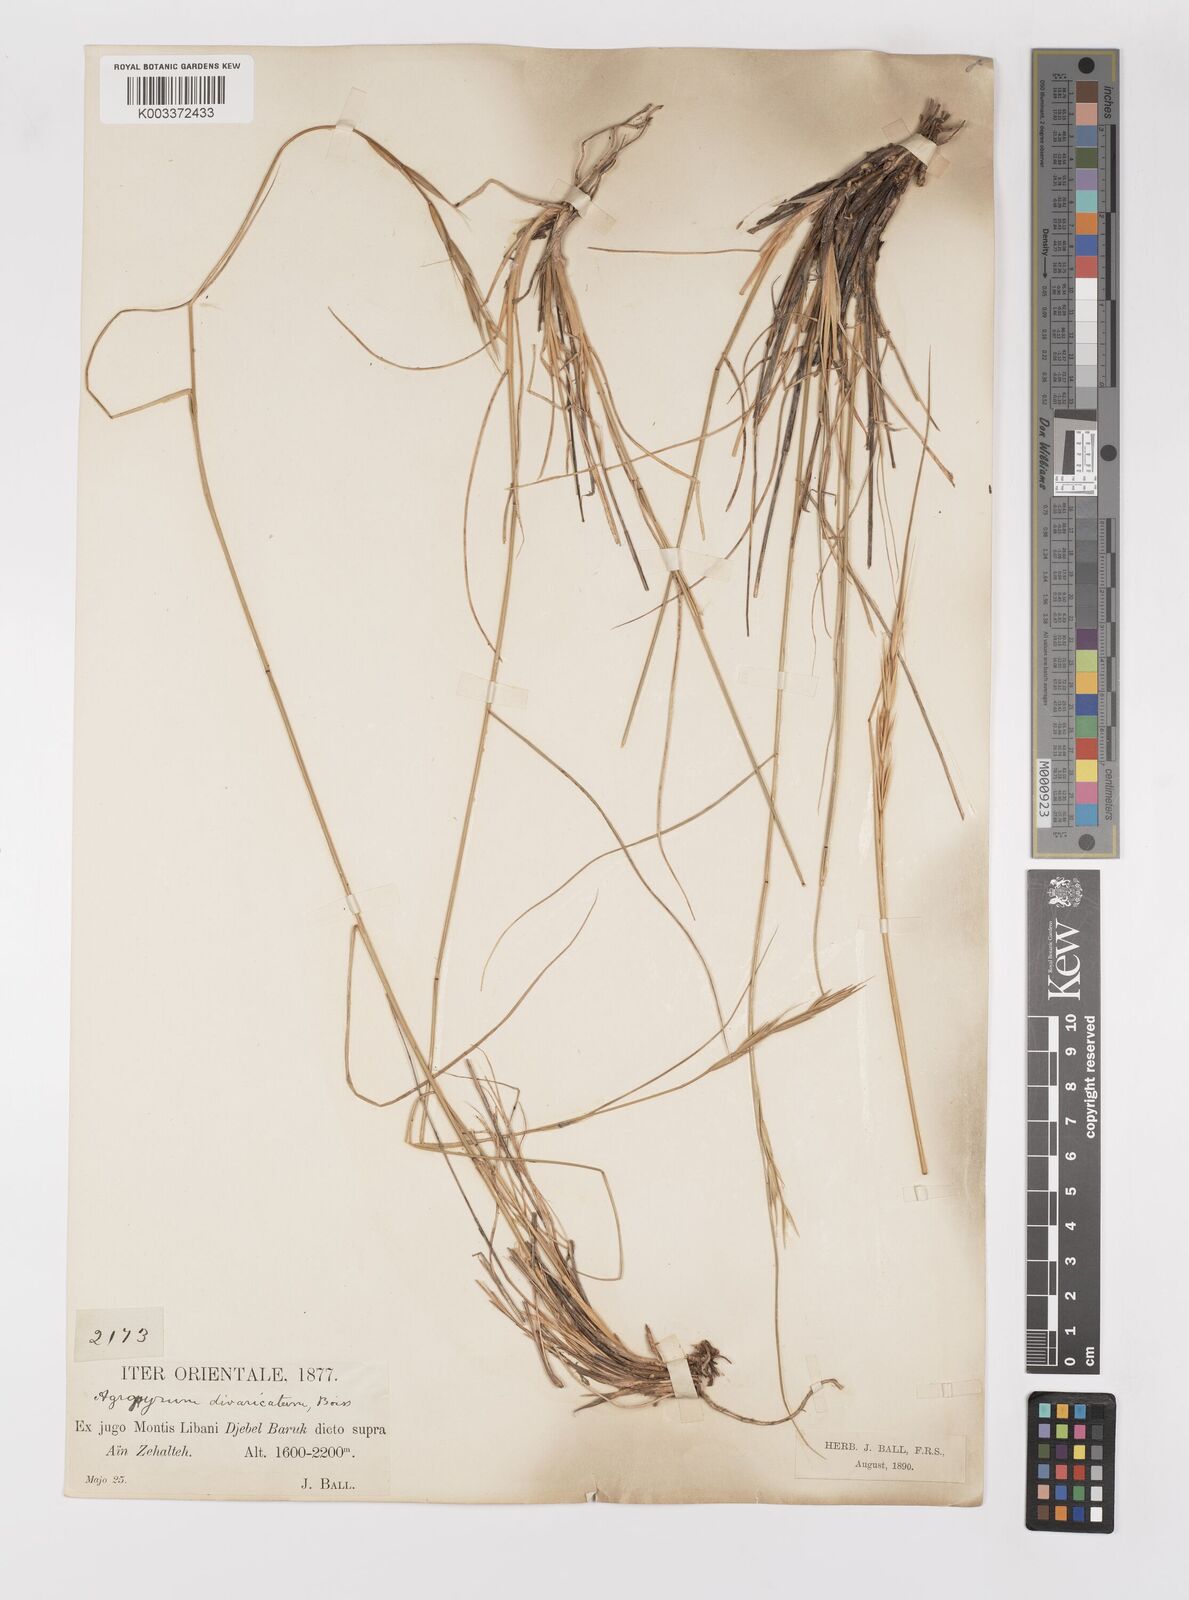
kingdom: Plantae
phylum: Tracheophyta
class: Liliopsida
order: Poales
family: Poaceae
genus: Elymus
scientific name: Elymus panormitanus
